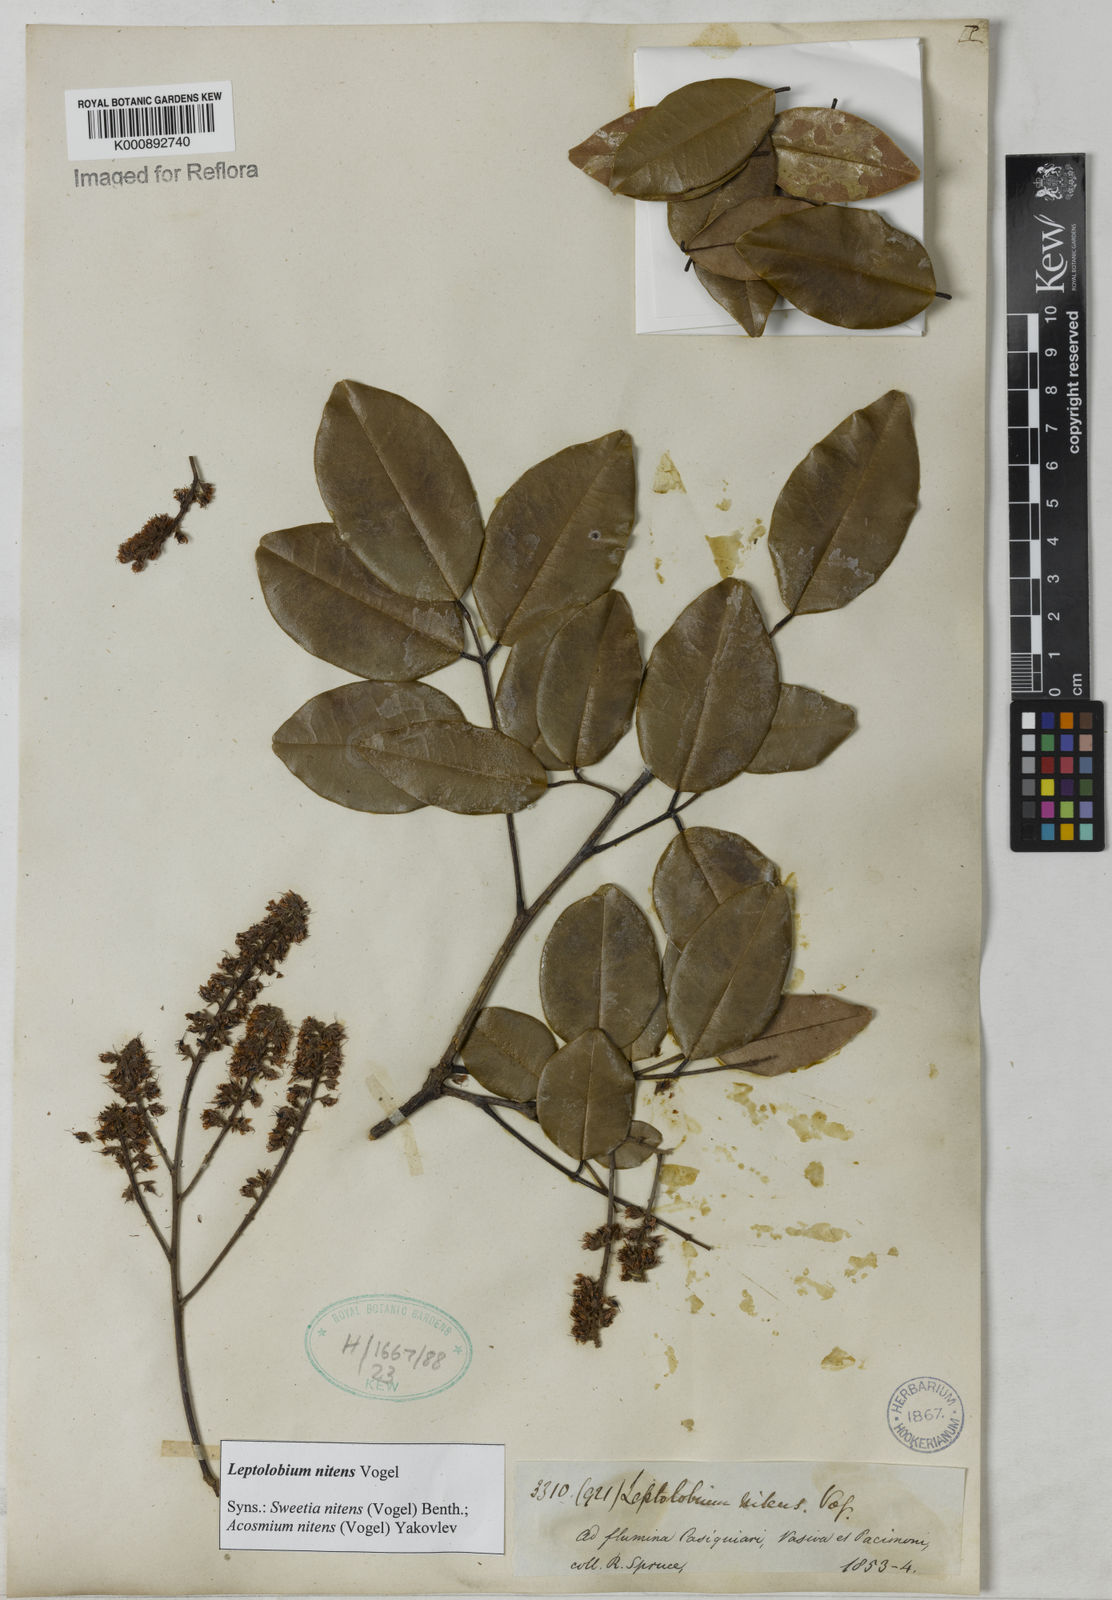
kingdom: Plantae
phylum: Tracheophyta
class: Magnoliopsida
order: Fabales
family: Fabaceae
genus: Leptolobium
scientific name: Leptolobium nitens
